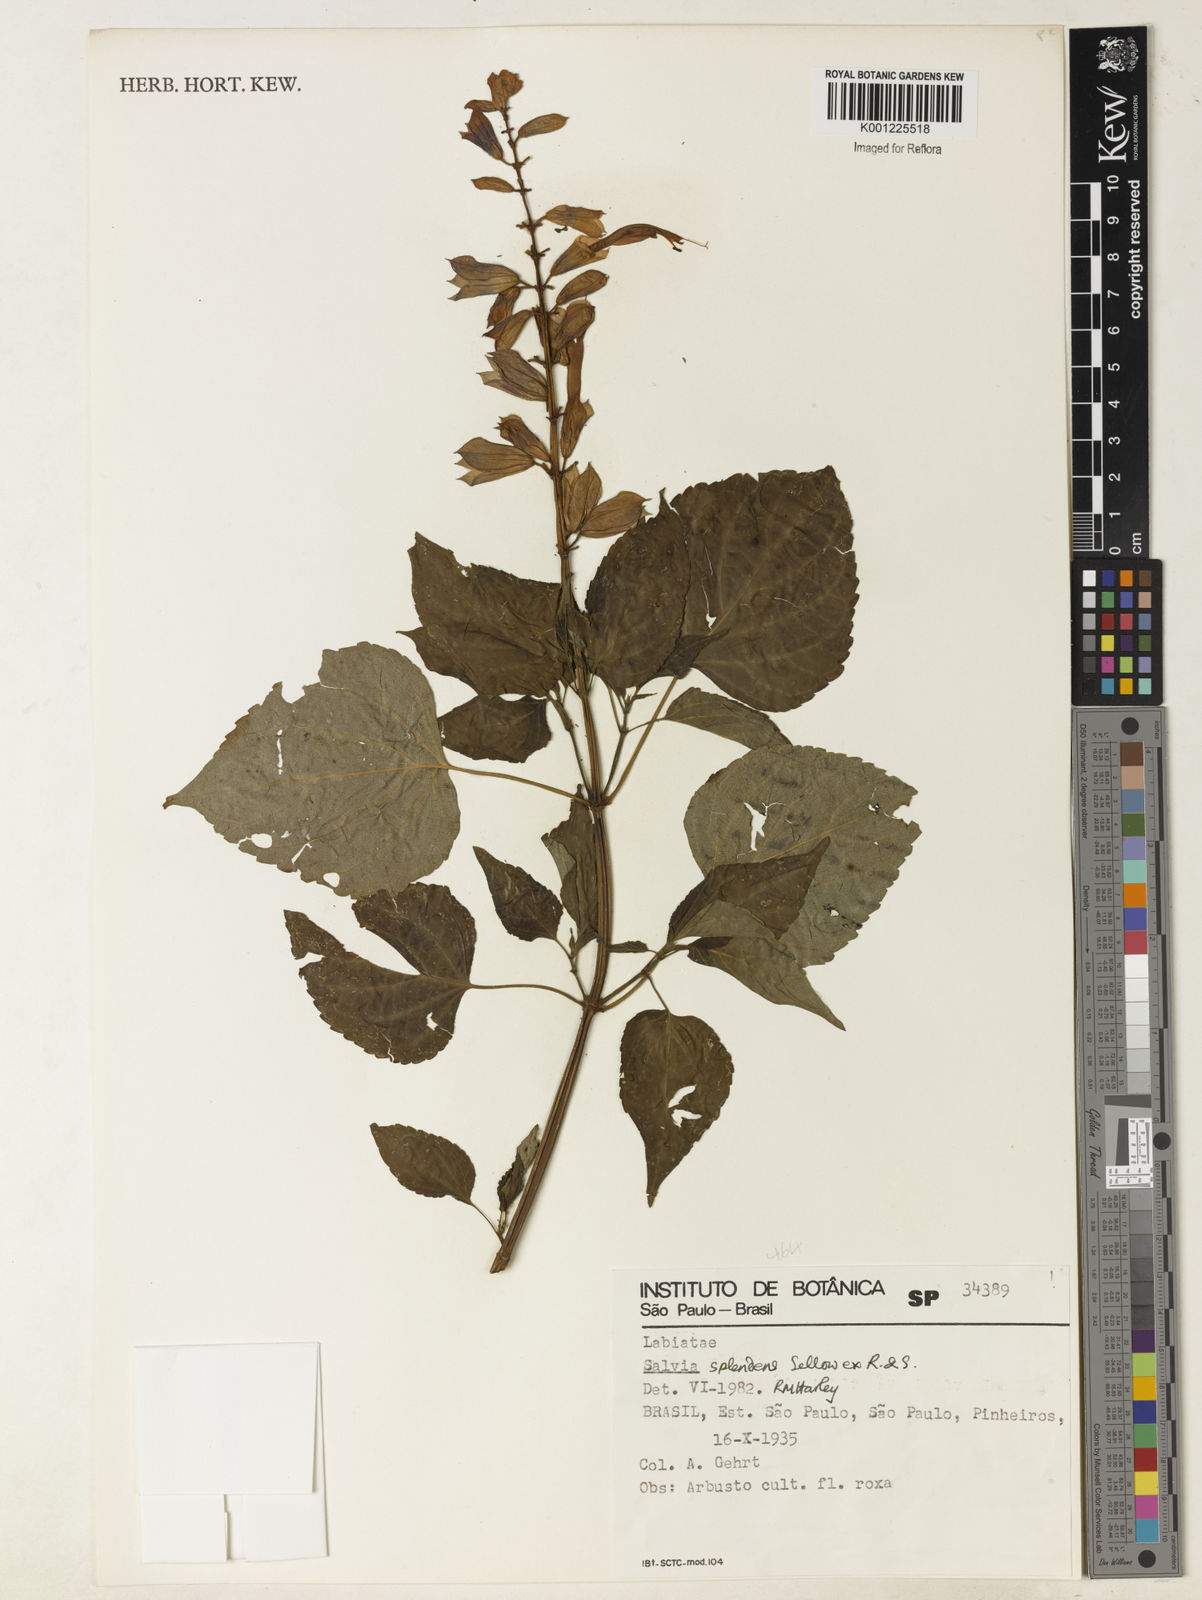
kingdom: Plantae
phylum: Tracheophyta
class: Magnoliopsida
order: Lamiales
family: Lamiaceae
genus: Salvia
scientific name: Salvia
